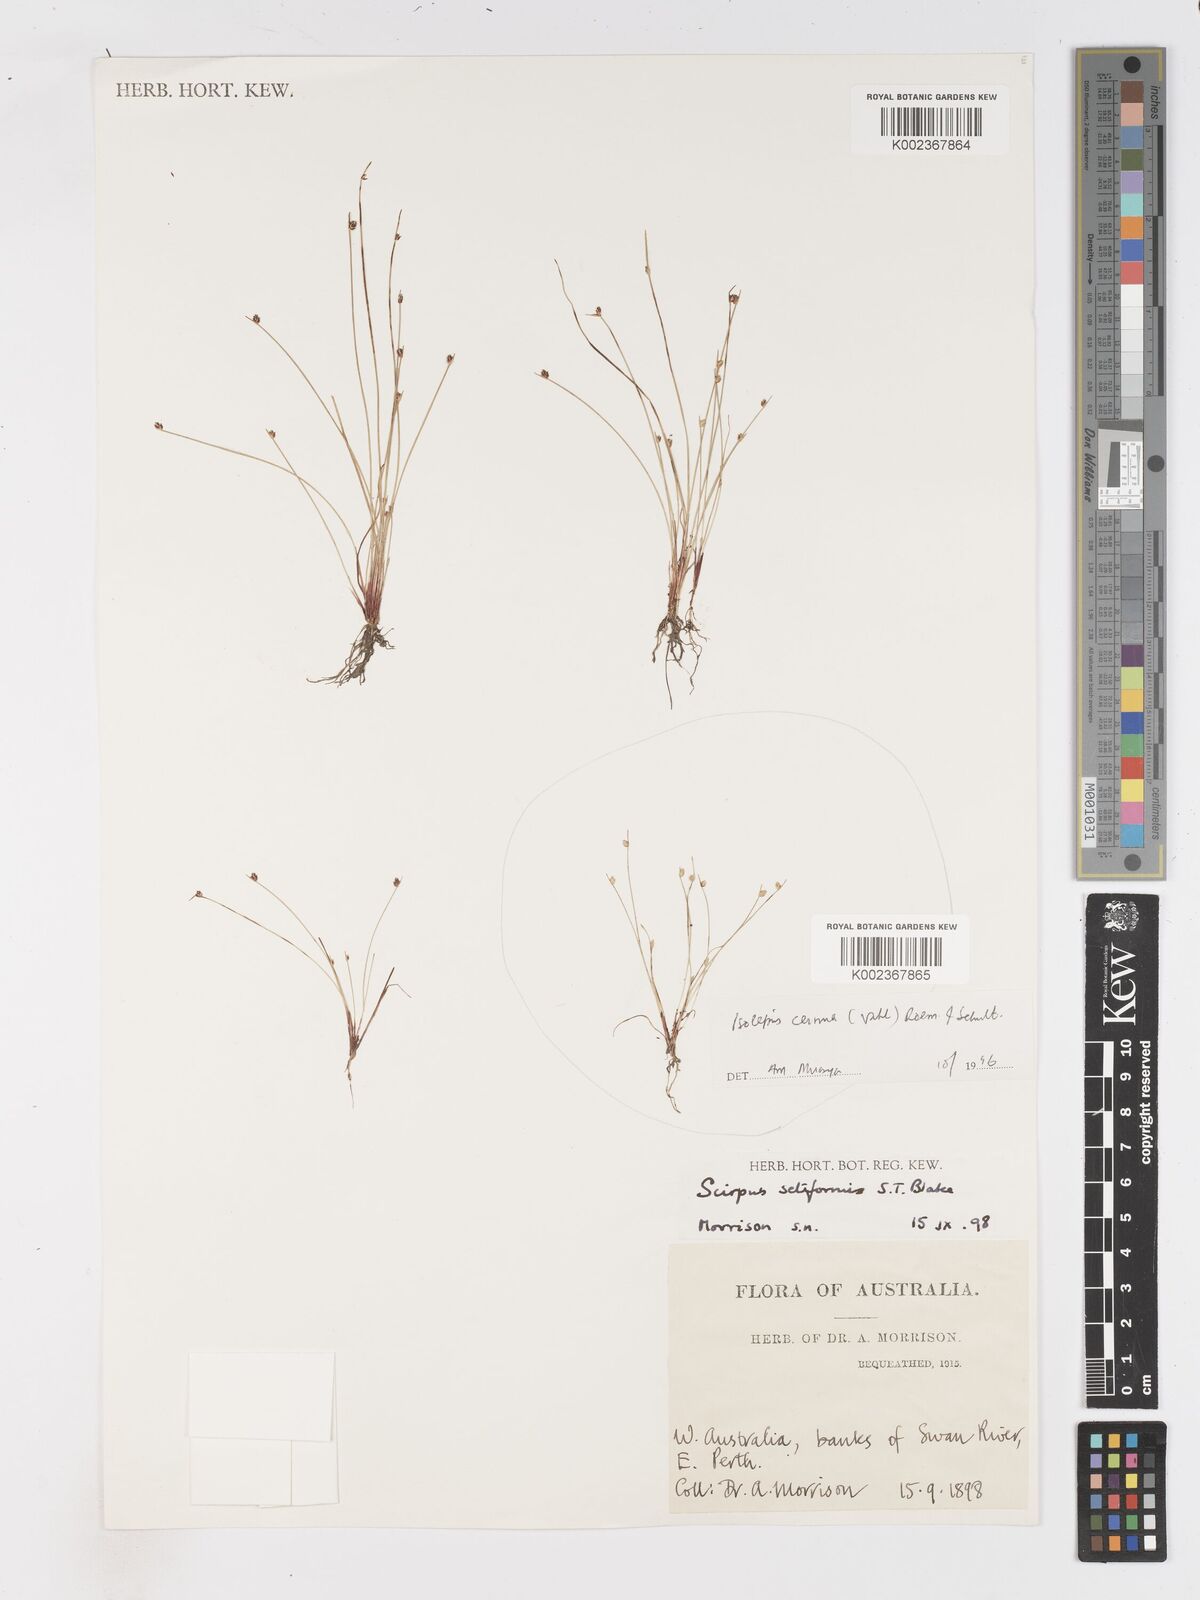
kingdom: Plantae
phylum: Tracheophyta
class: Liliopsida
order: Poales
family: Cyperaceae
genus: Isolepis
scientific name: Isolepis cernua
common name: Slender club-rush
